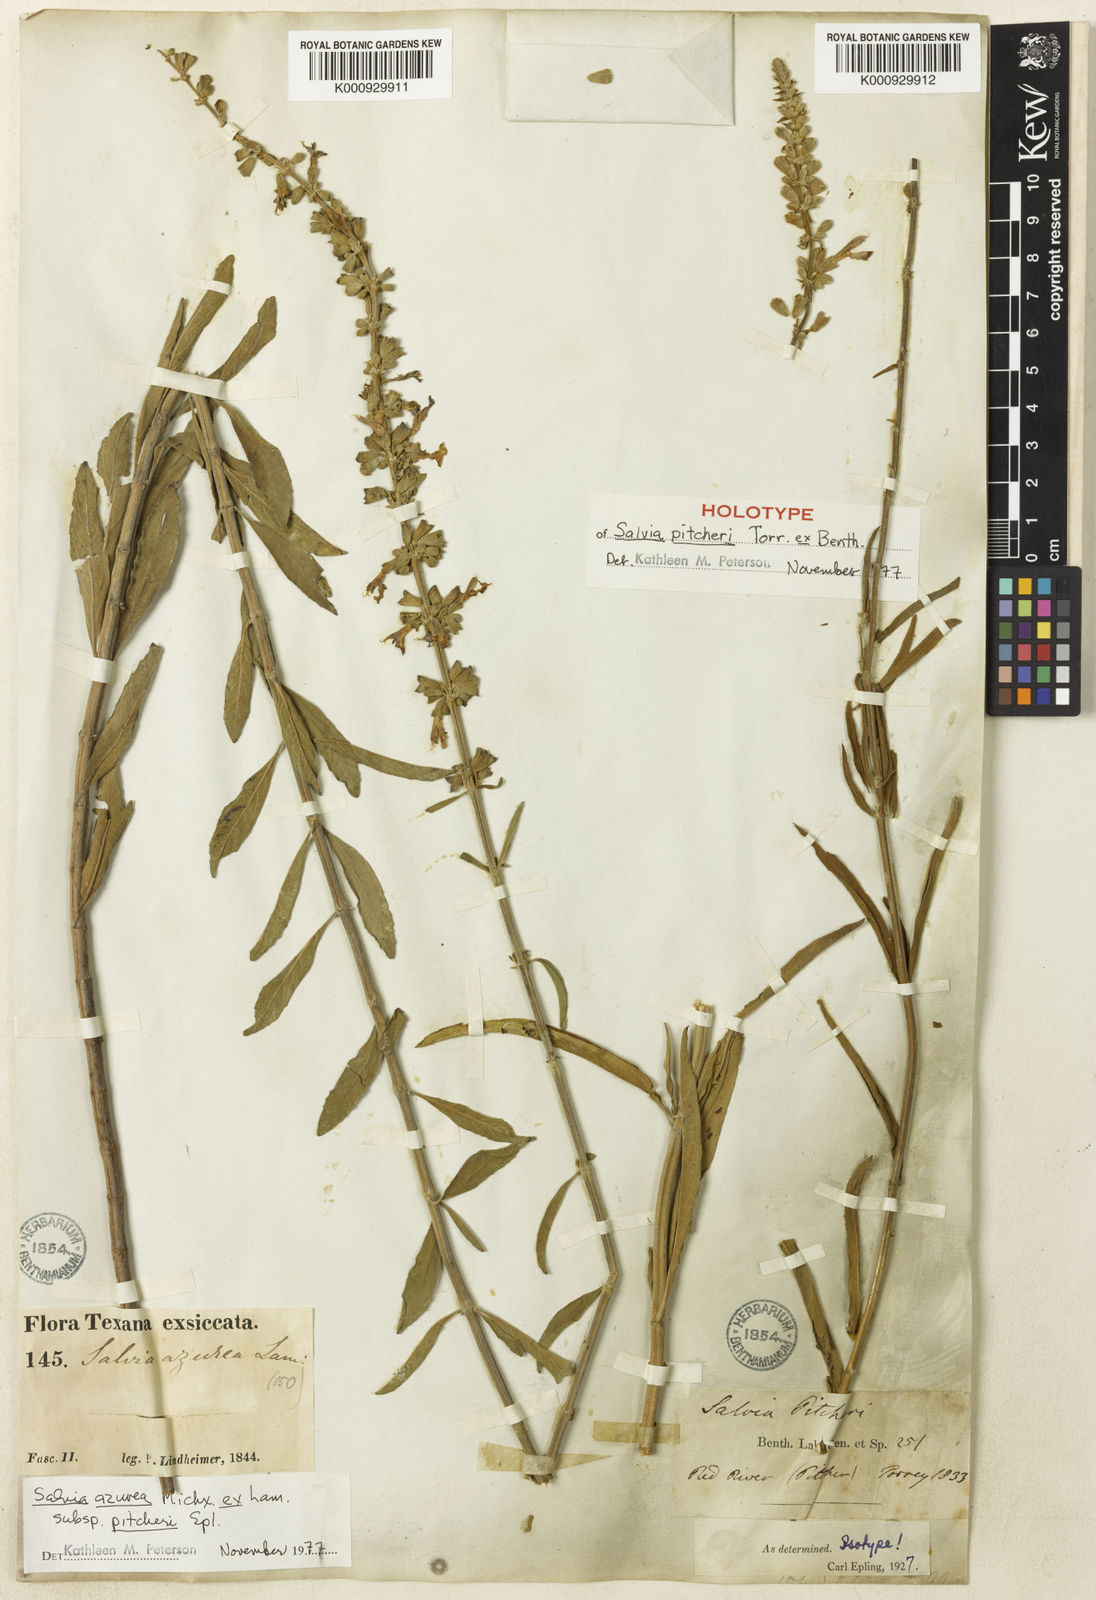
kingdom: Plantae
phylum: Tracheophyta
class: Magnoliopsida
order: Lamiales
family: Lamiaceae
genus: Salvia
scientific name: Salvia azurea
